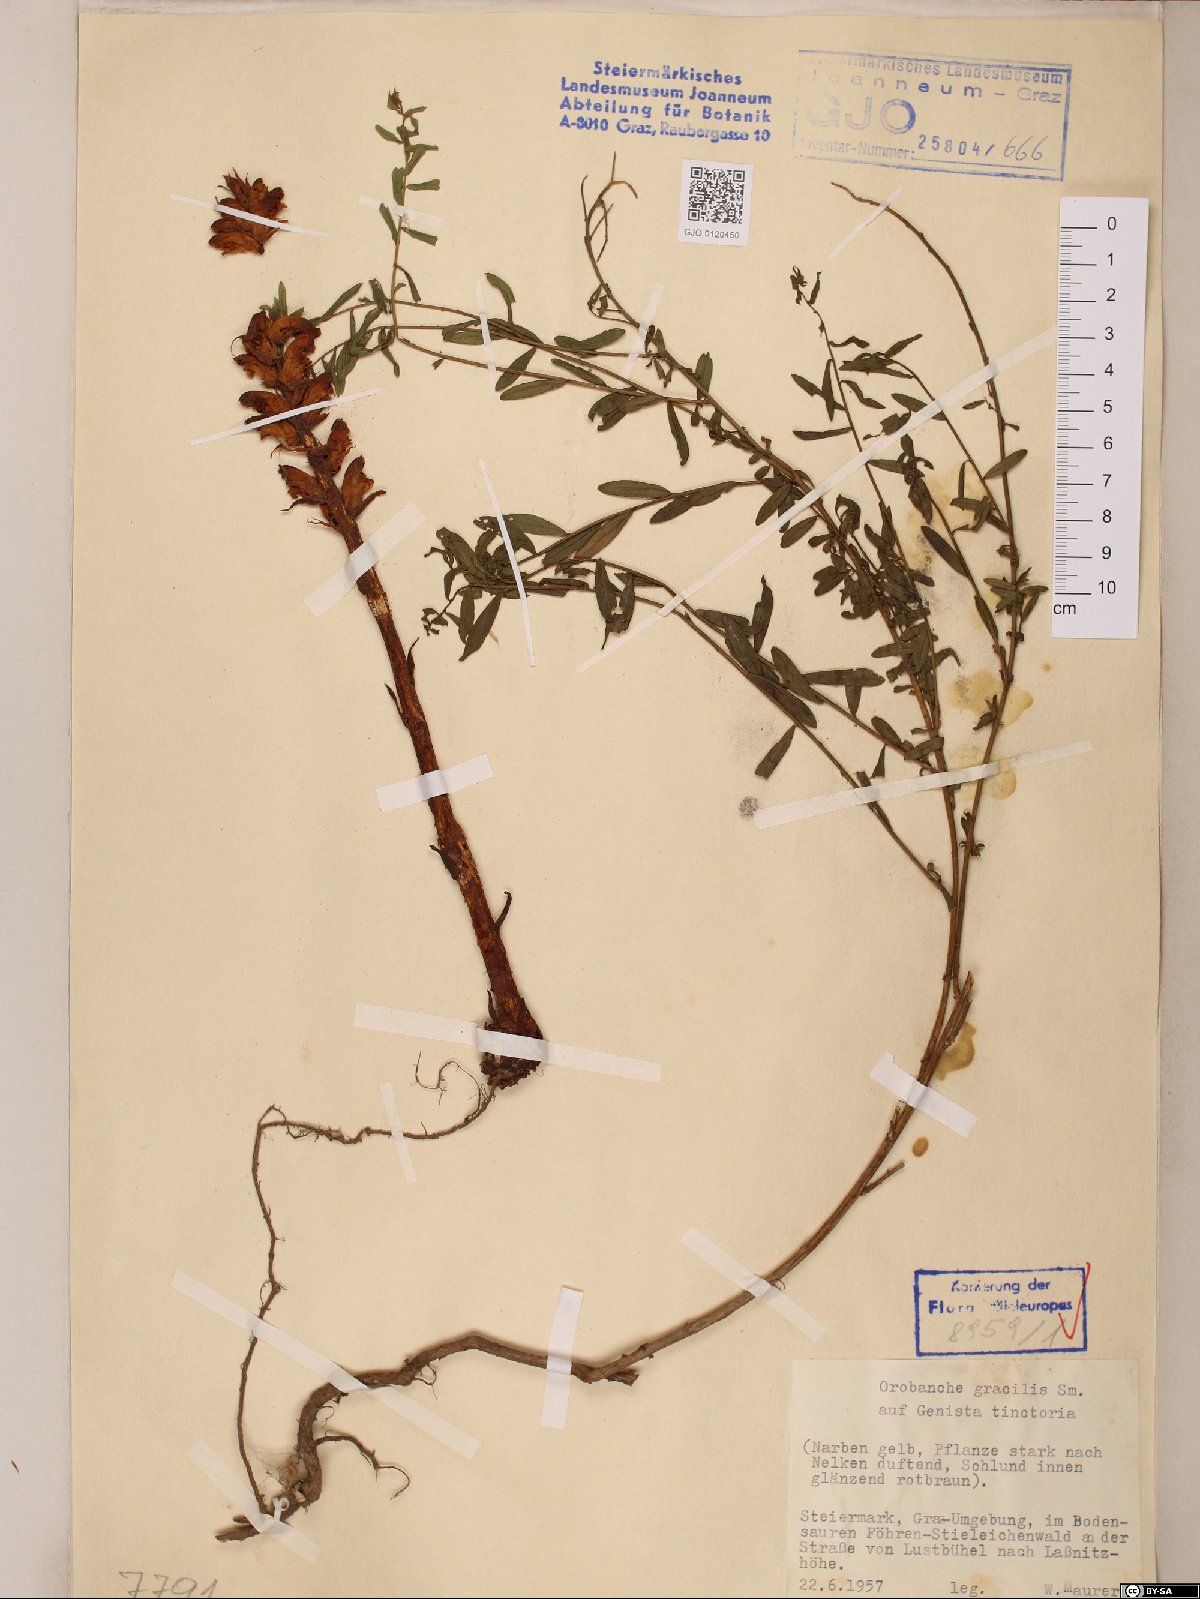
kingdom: Plantae
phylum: Tracheophyta
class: Magnoliopsida
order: Lamiales
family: Orobanchaceae
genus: Orobanche
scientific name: Orobanche gracilis
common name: Slender broomrape
